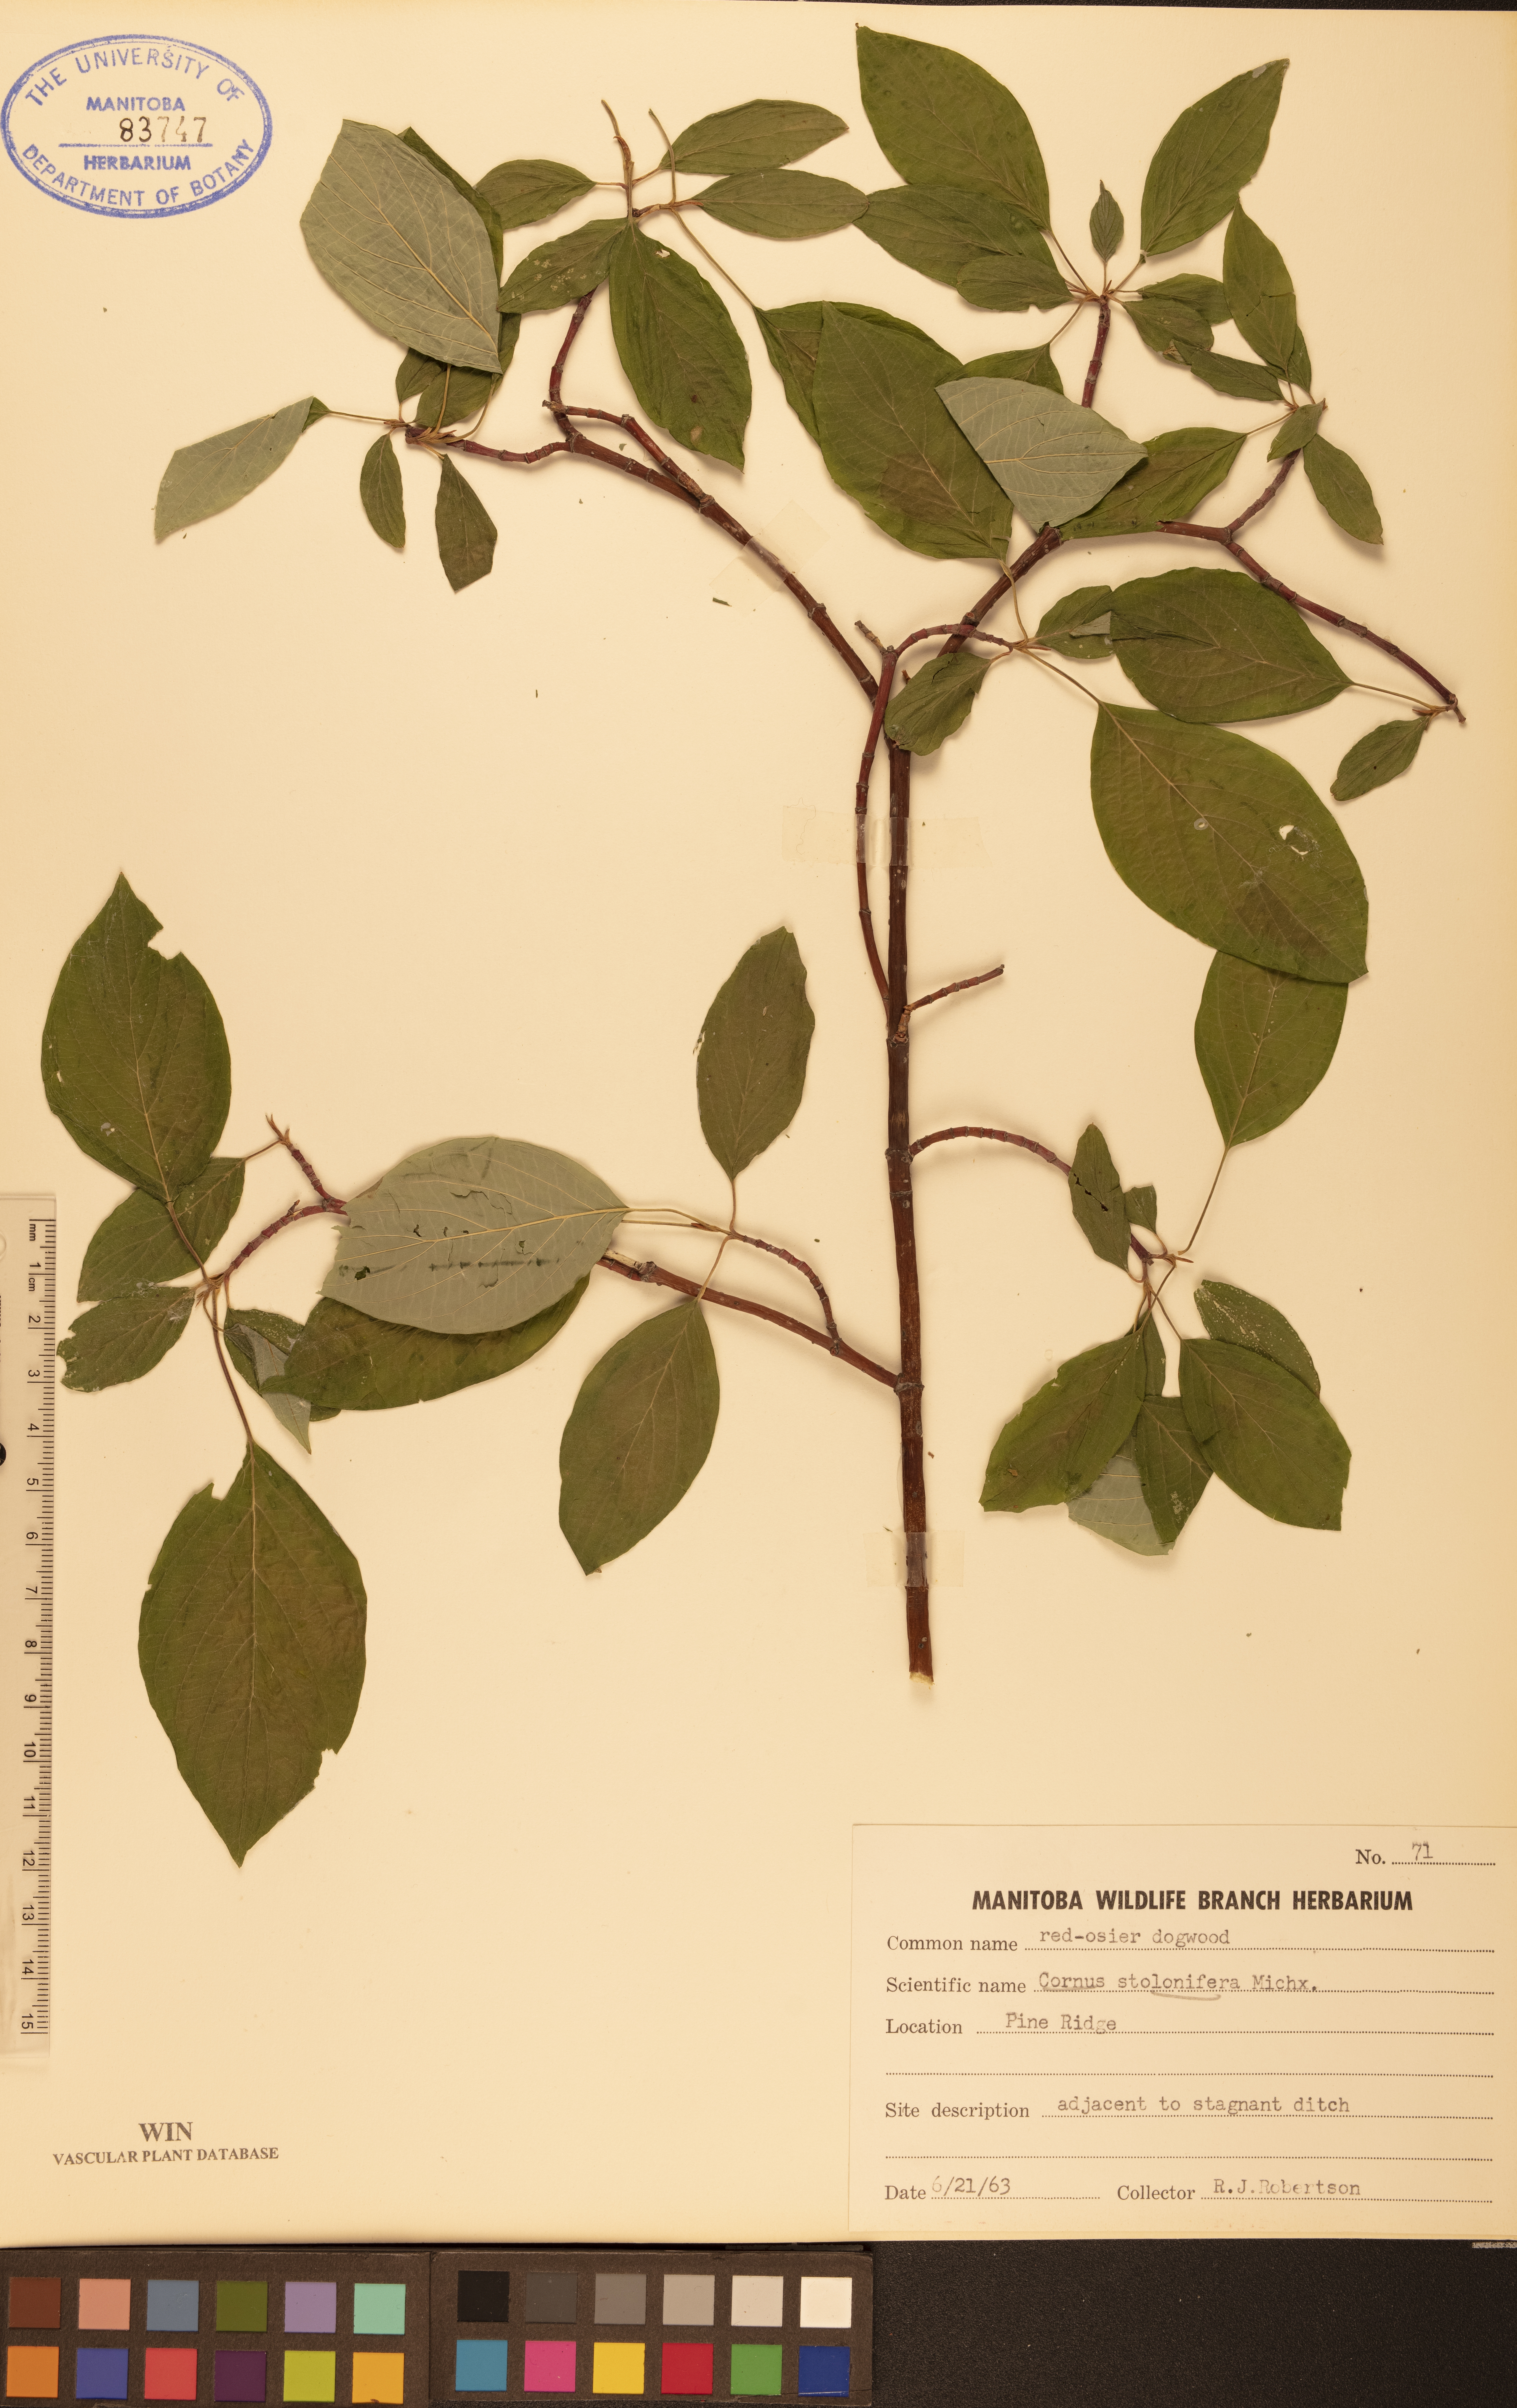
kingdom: Plantae
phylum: Tracheophyta
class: Magnoliopsida
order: Cornales
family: Cornaceae
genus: Cornus
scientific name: Cornus sericea
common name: Red-osier dogwood
